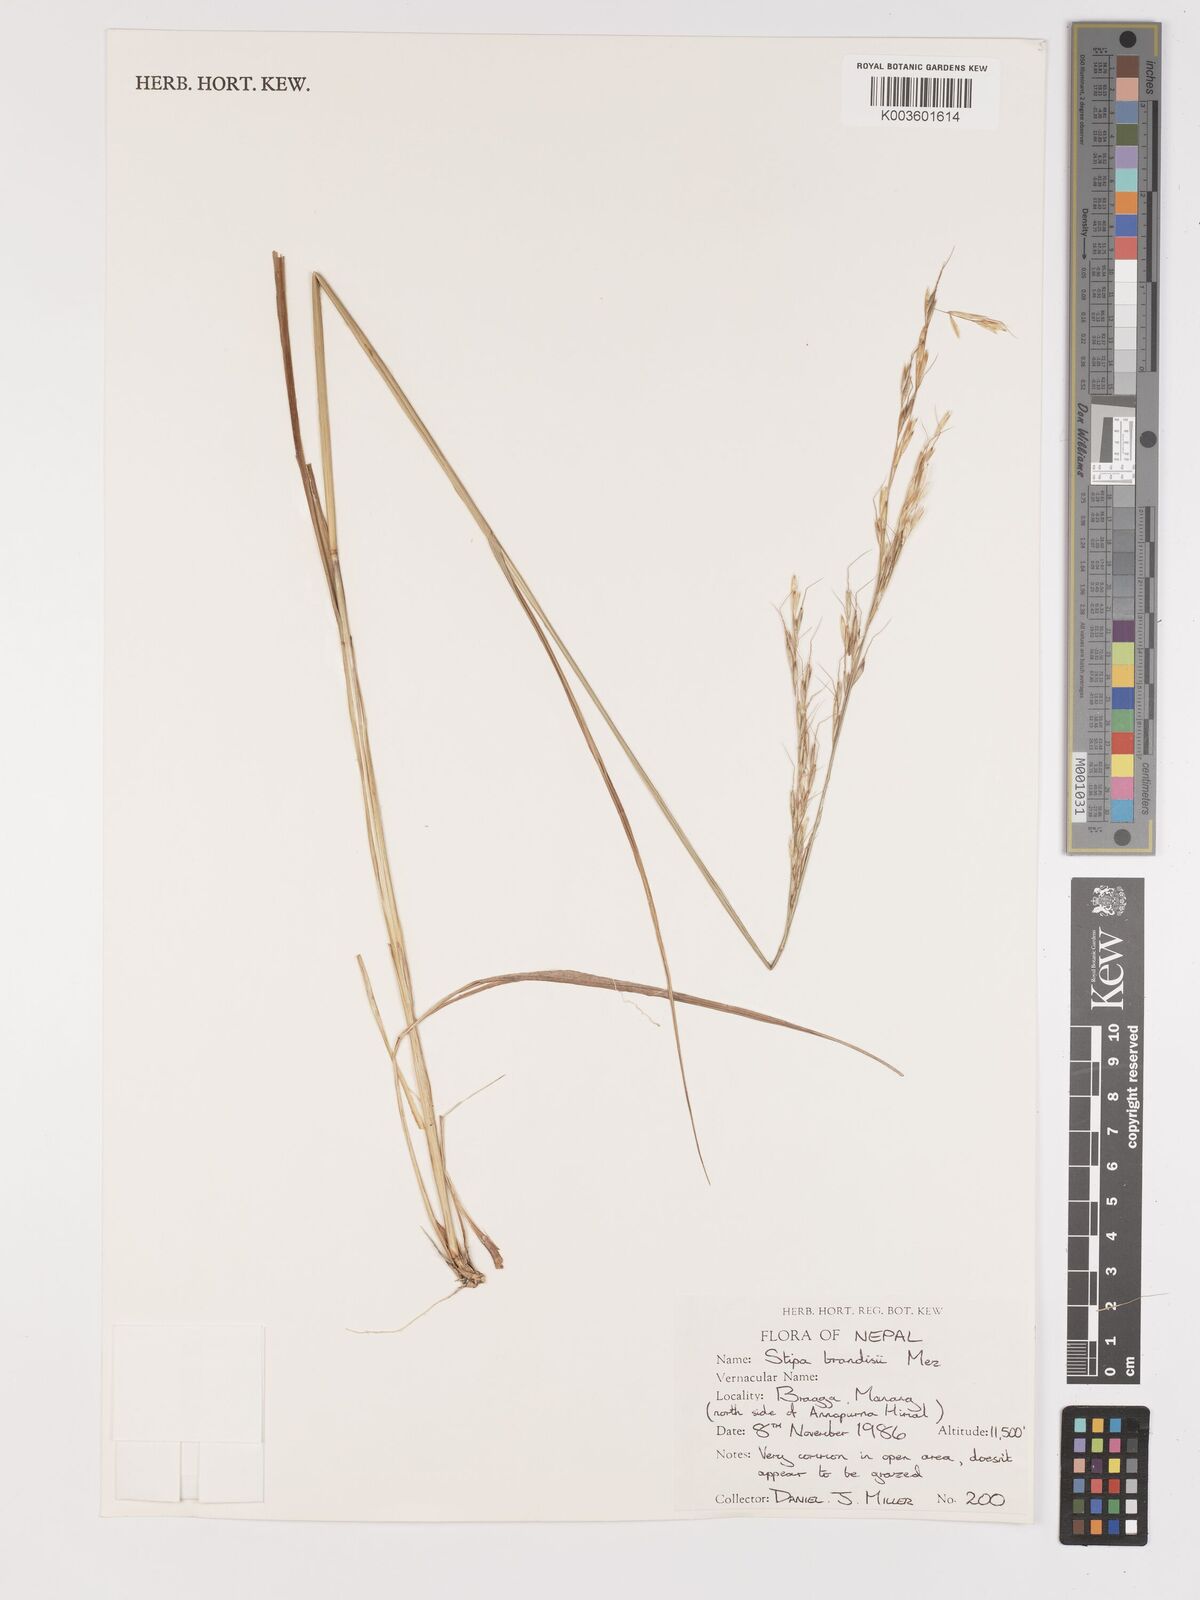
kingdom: Plantae
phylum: Tracheophyta
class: Liliopsida
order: Poales
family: Poaceae
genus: Achnatherum
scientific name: Achnatherum brandisii
